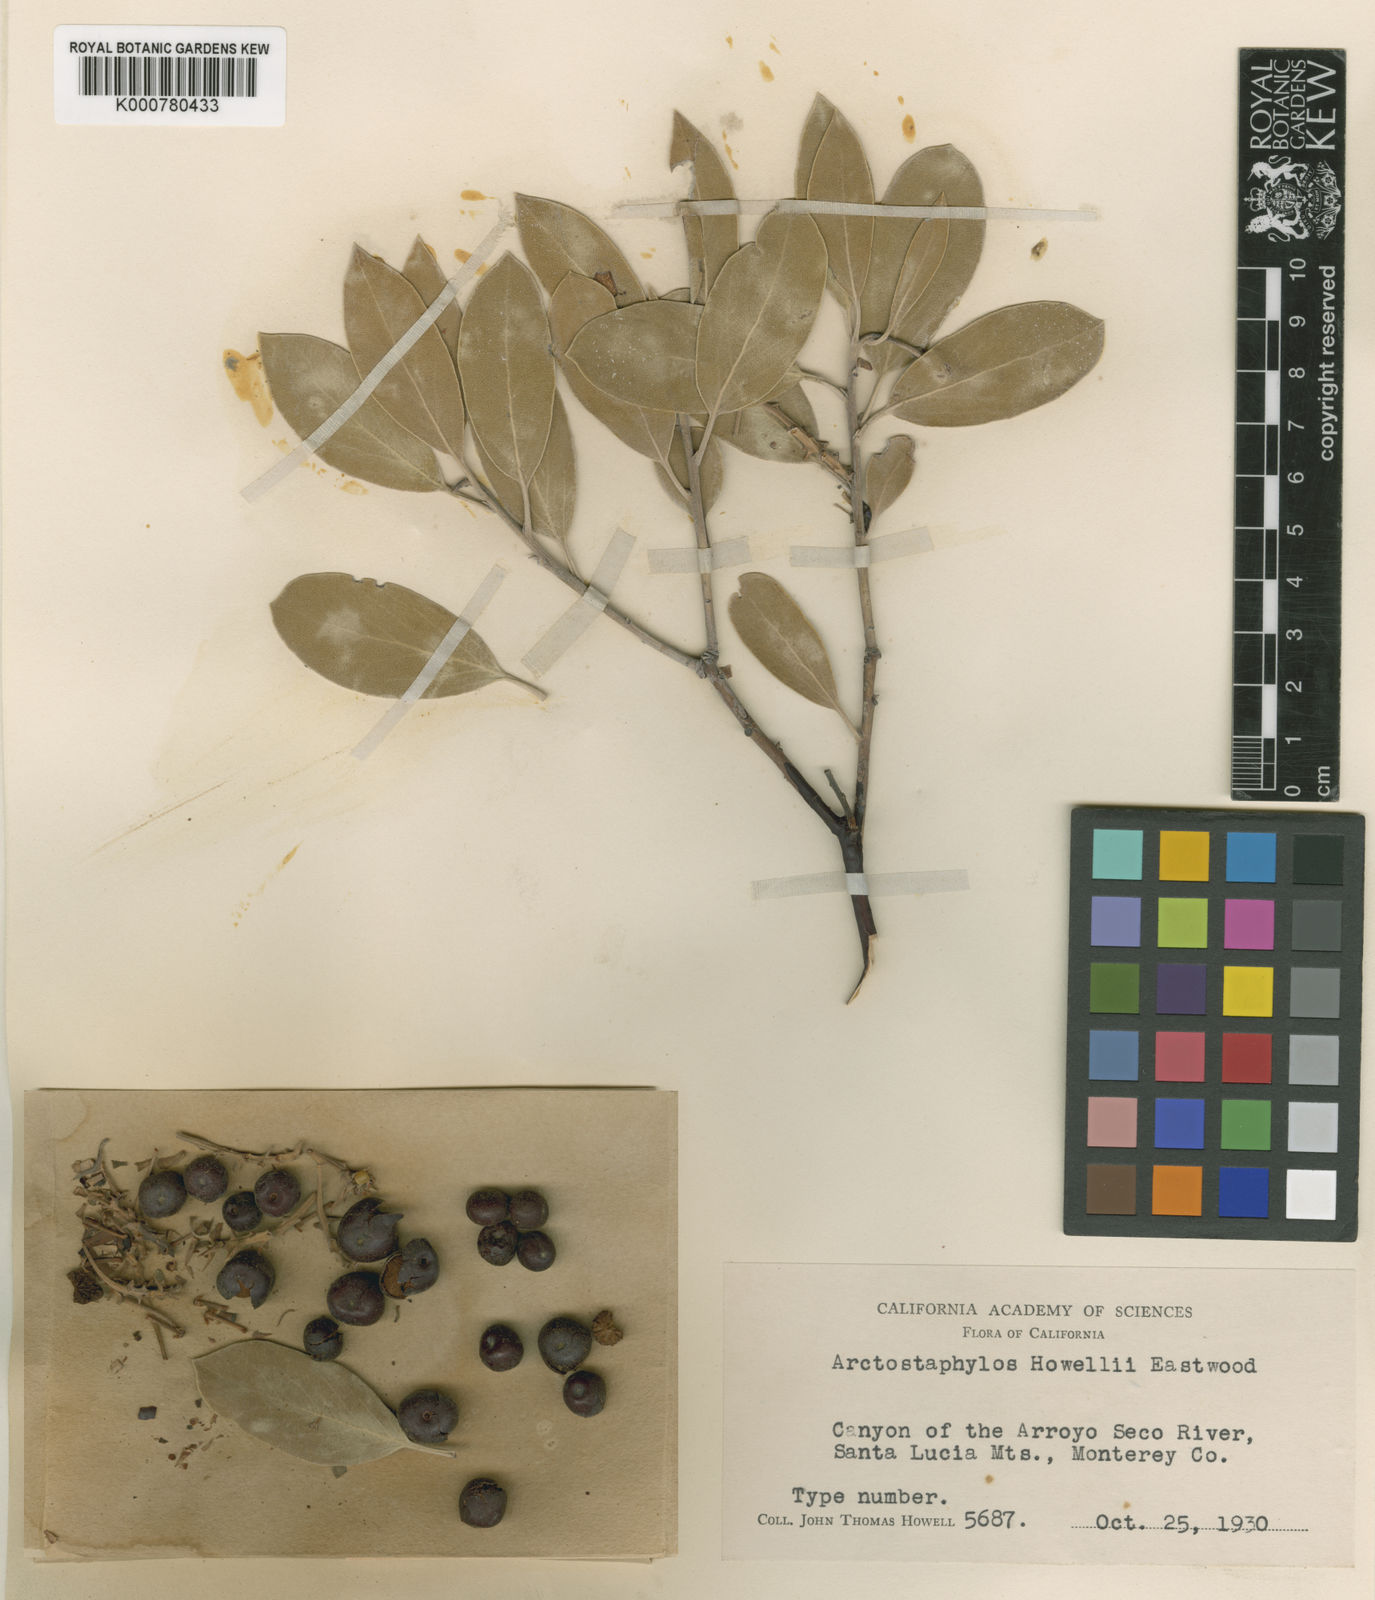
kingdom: Plantae
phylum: Tracheophyta
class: Magnoliopsida
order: Ericales
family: Ericaceae
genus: Arctostaphylos
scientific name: Arctostaphylos glandulosa
